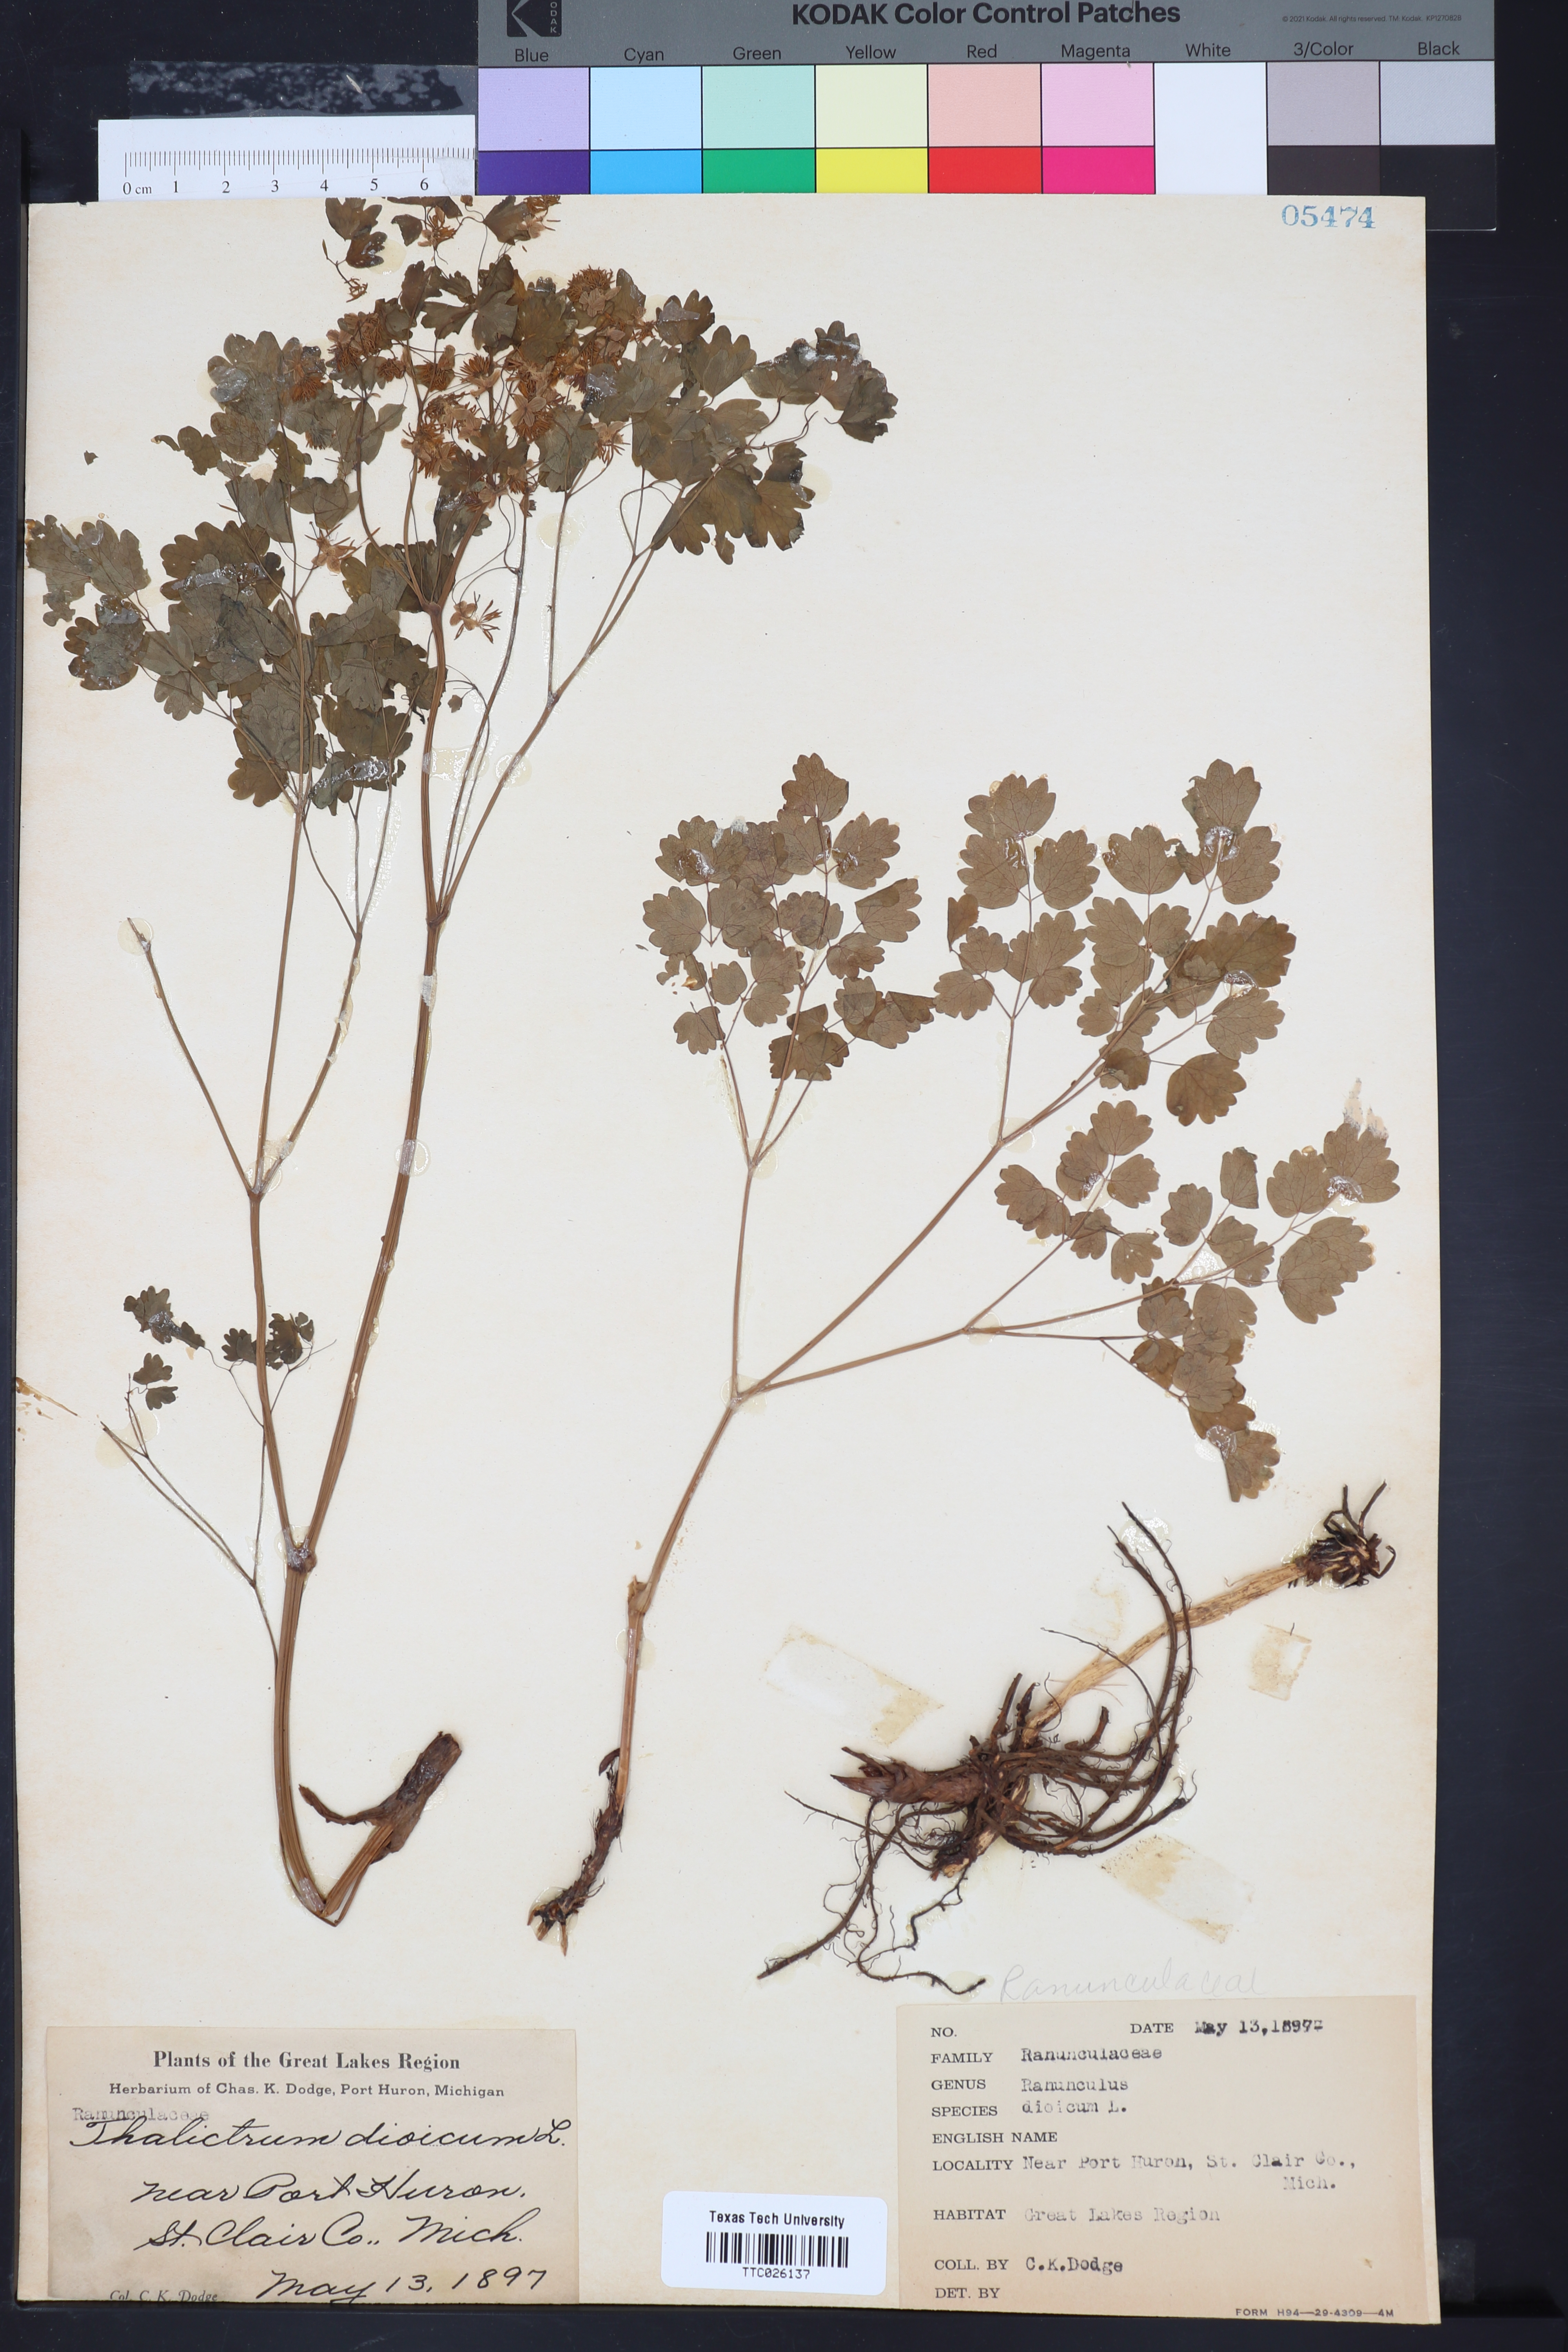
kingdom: Plantae
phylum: Tracheophyta
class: Magnoliopsida
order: Ranunculales
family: Ranunculaceae
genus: Thalictrum
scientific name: Thalictrum dioicum
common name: Early meadow-rue
